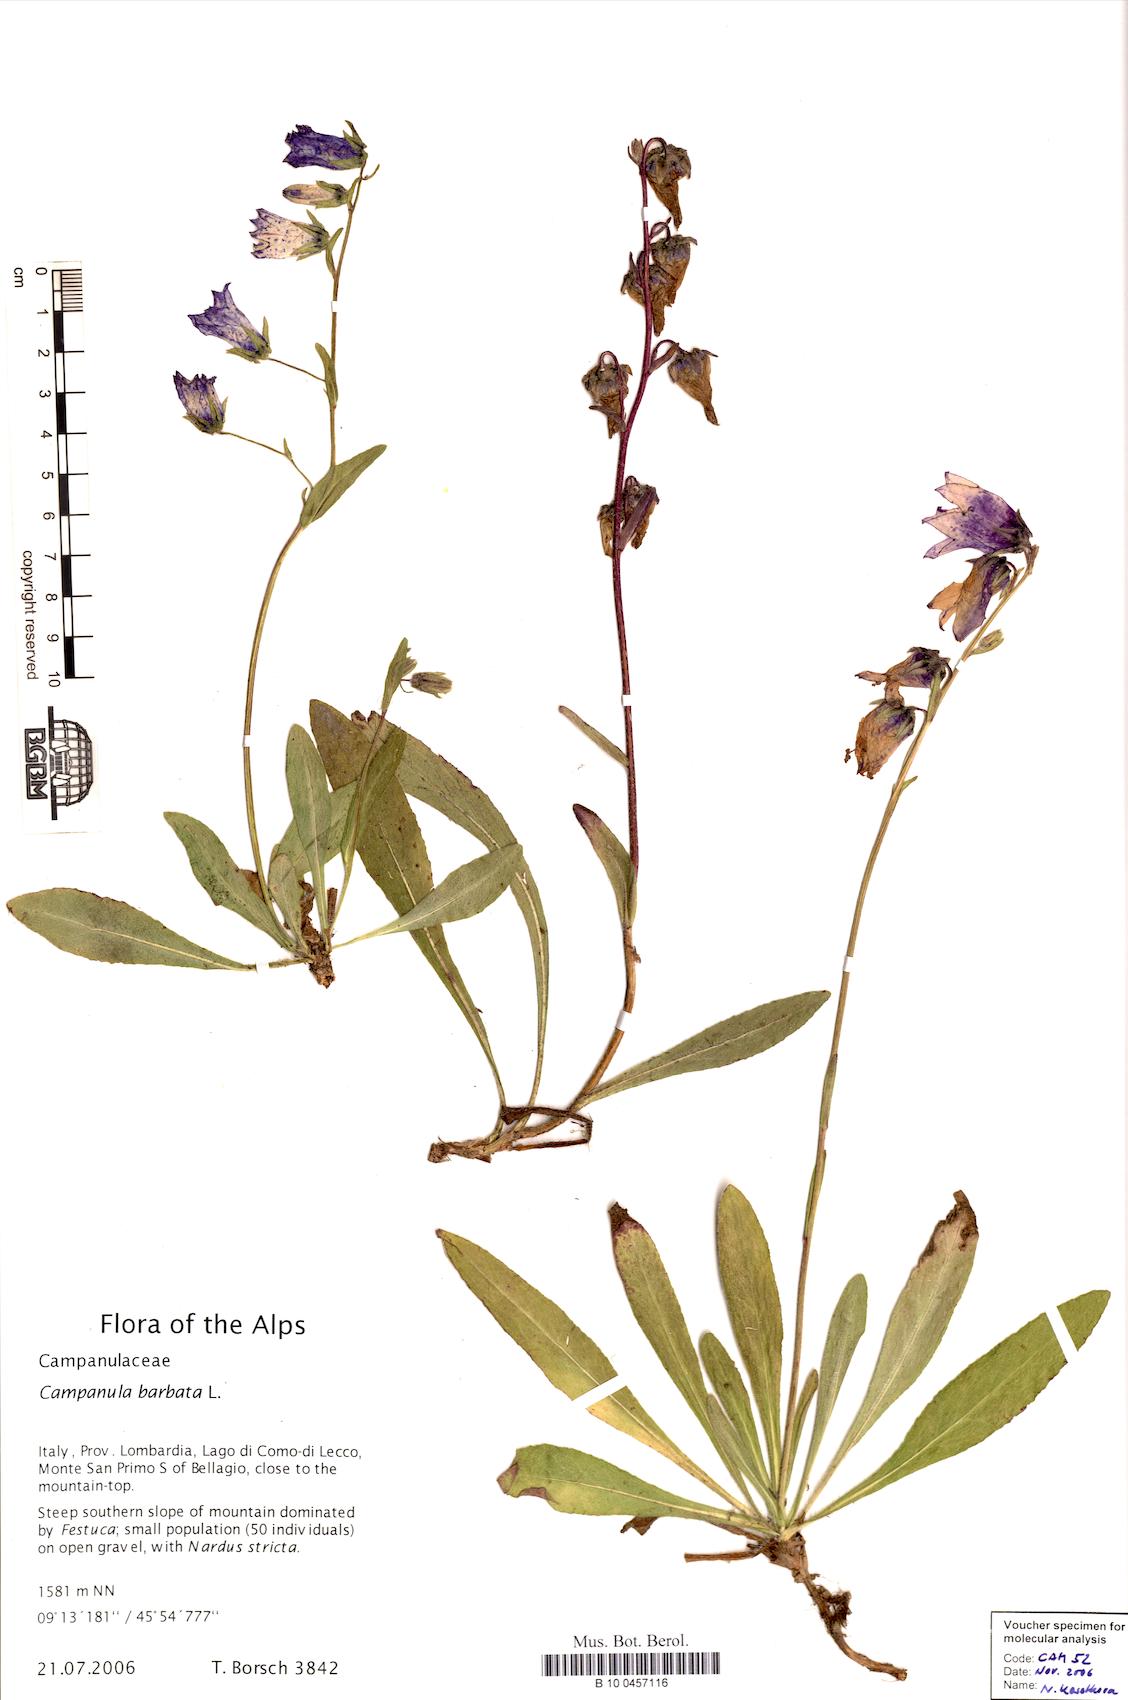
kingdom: Plantae
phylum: Tracheophyta
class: Magnoliopsida
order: Asterales
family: Campanulaceae
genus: Campanula
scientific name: Campanula barbata
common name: Bearded bellflower
